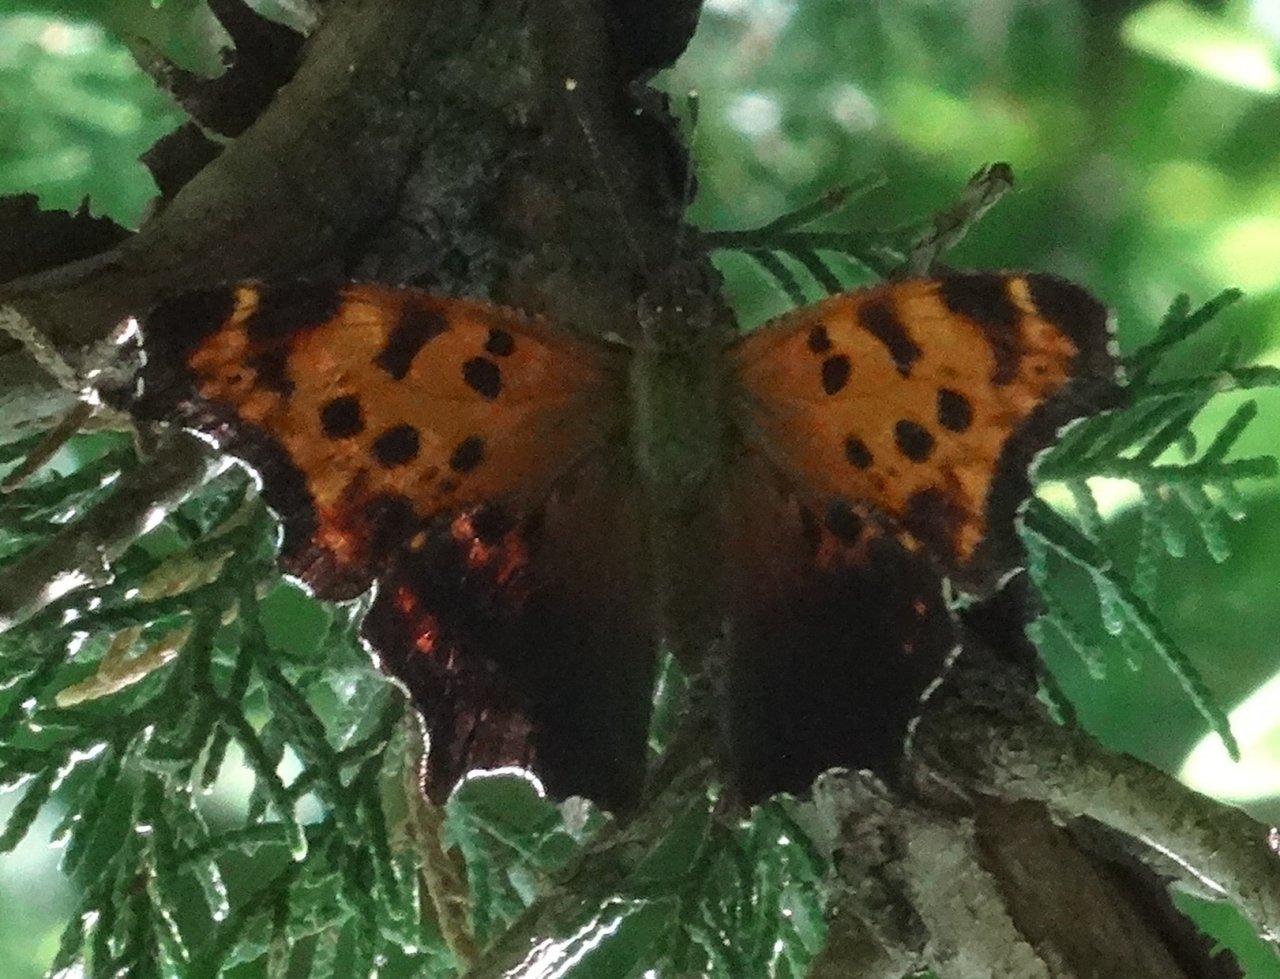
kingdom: Animalia
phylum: Arthropoda
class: Insecta
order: Lepidoptera
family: Nymphalidae
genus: Polygonia
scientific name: Polygonia comma
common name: Eastern Comma
